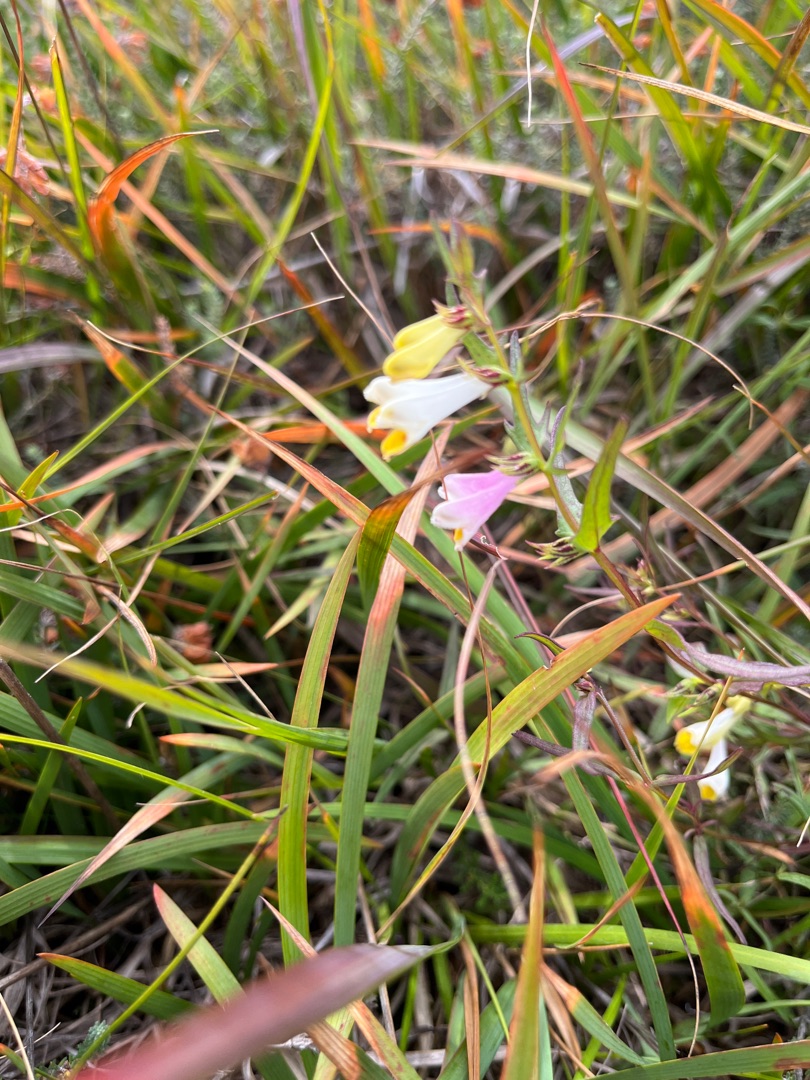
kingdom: Plantae
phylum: Tracheophyta
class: Magnoliopsida
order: Lamiales
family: Orobanchaceae
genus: Melampyrum
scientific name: Melampyrum pratense
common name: Almindelig kohvede
